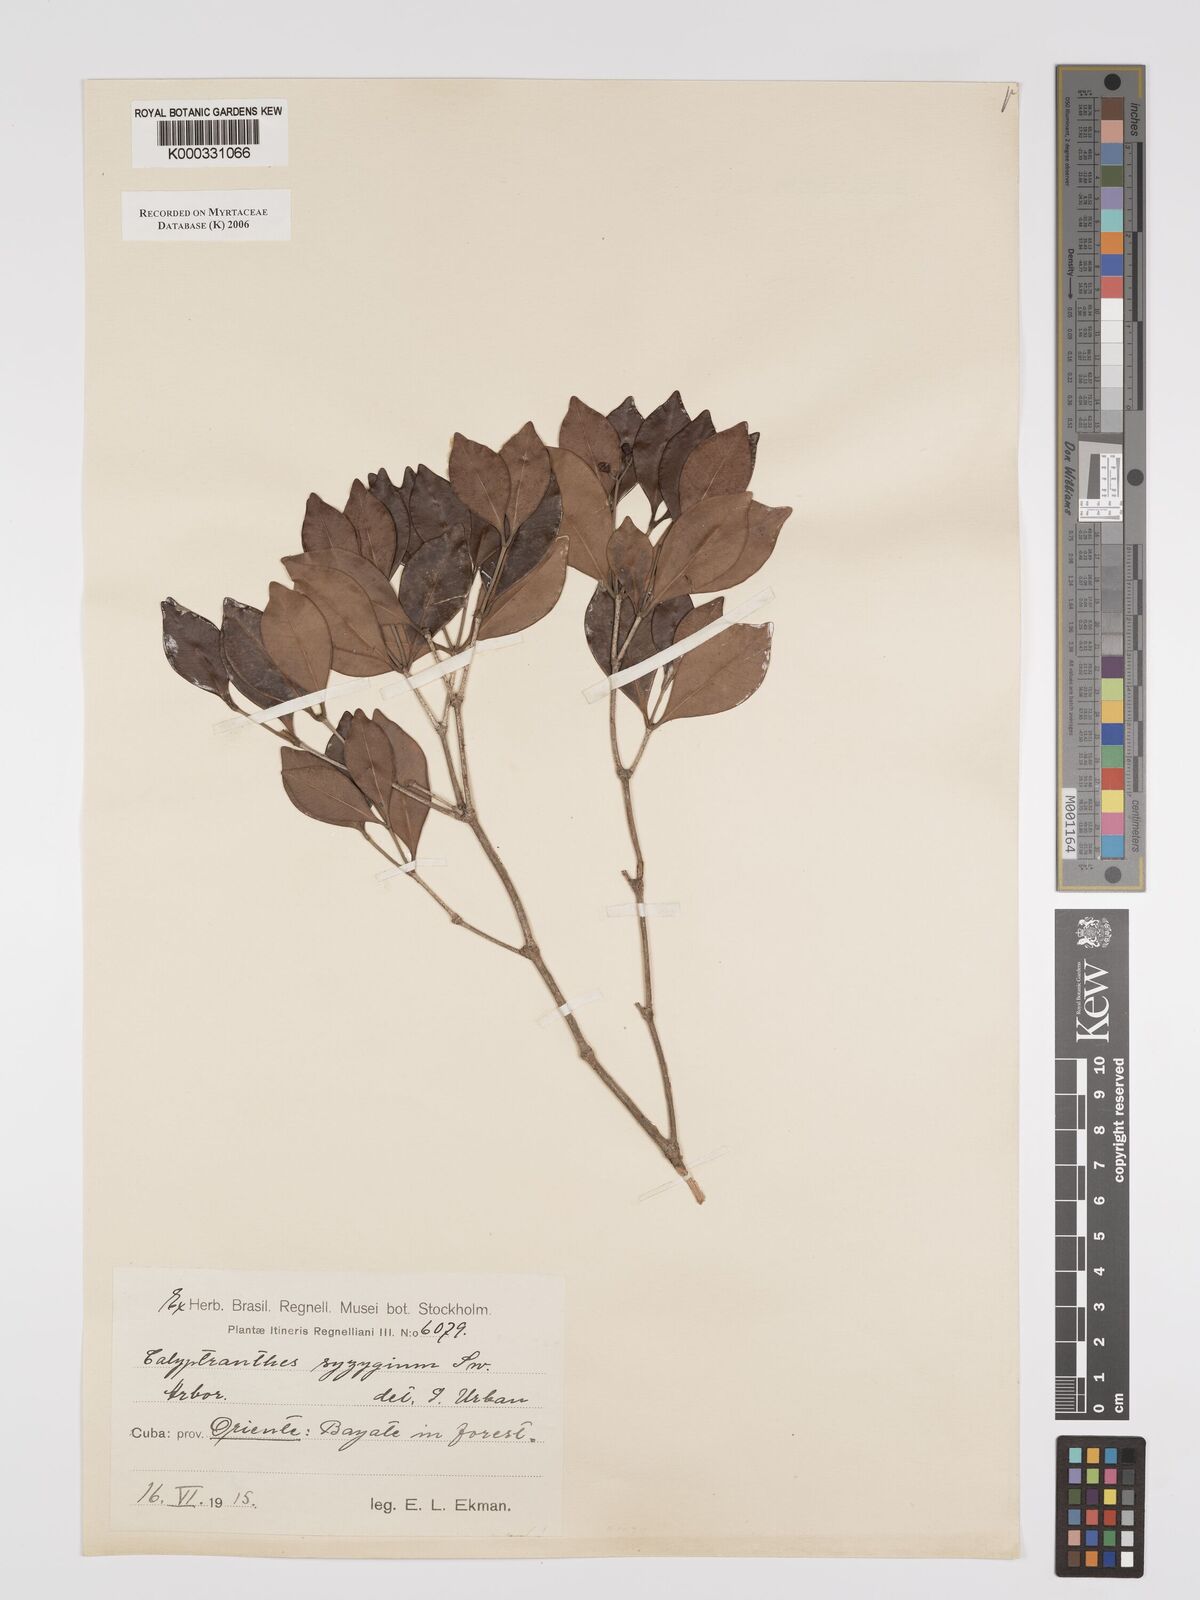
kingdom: Plantae
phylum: Tracheophyta
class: Magnoliopsida
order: Myrtales
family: Myrtaceae
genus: Myrcia
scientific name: Myrcia chytraculia
